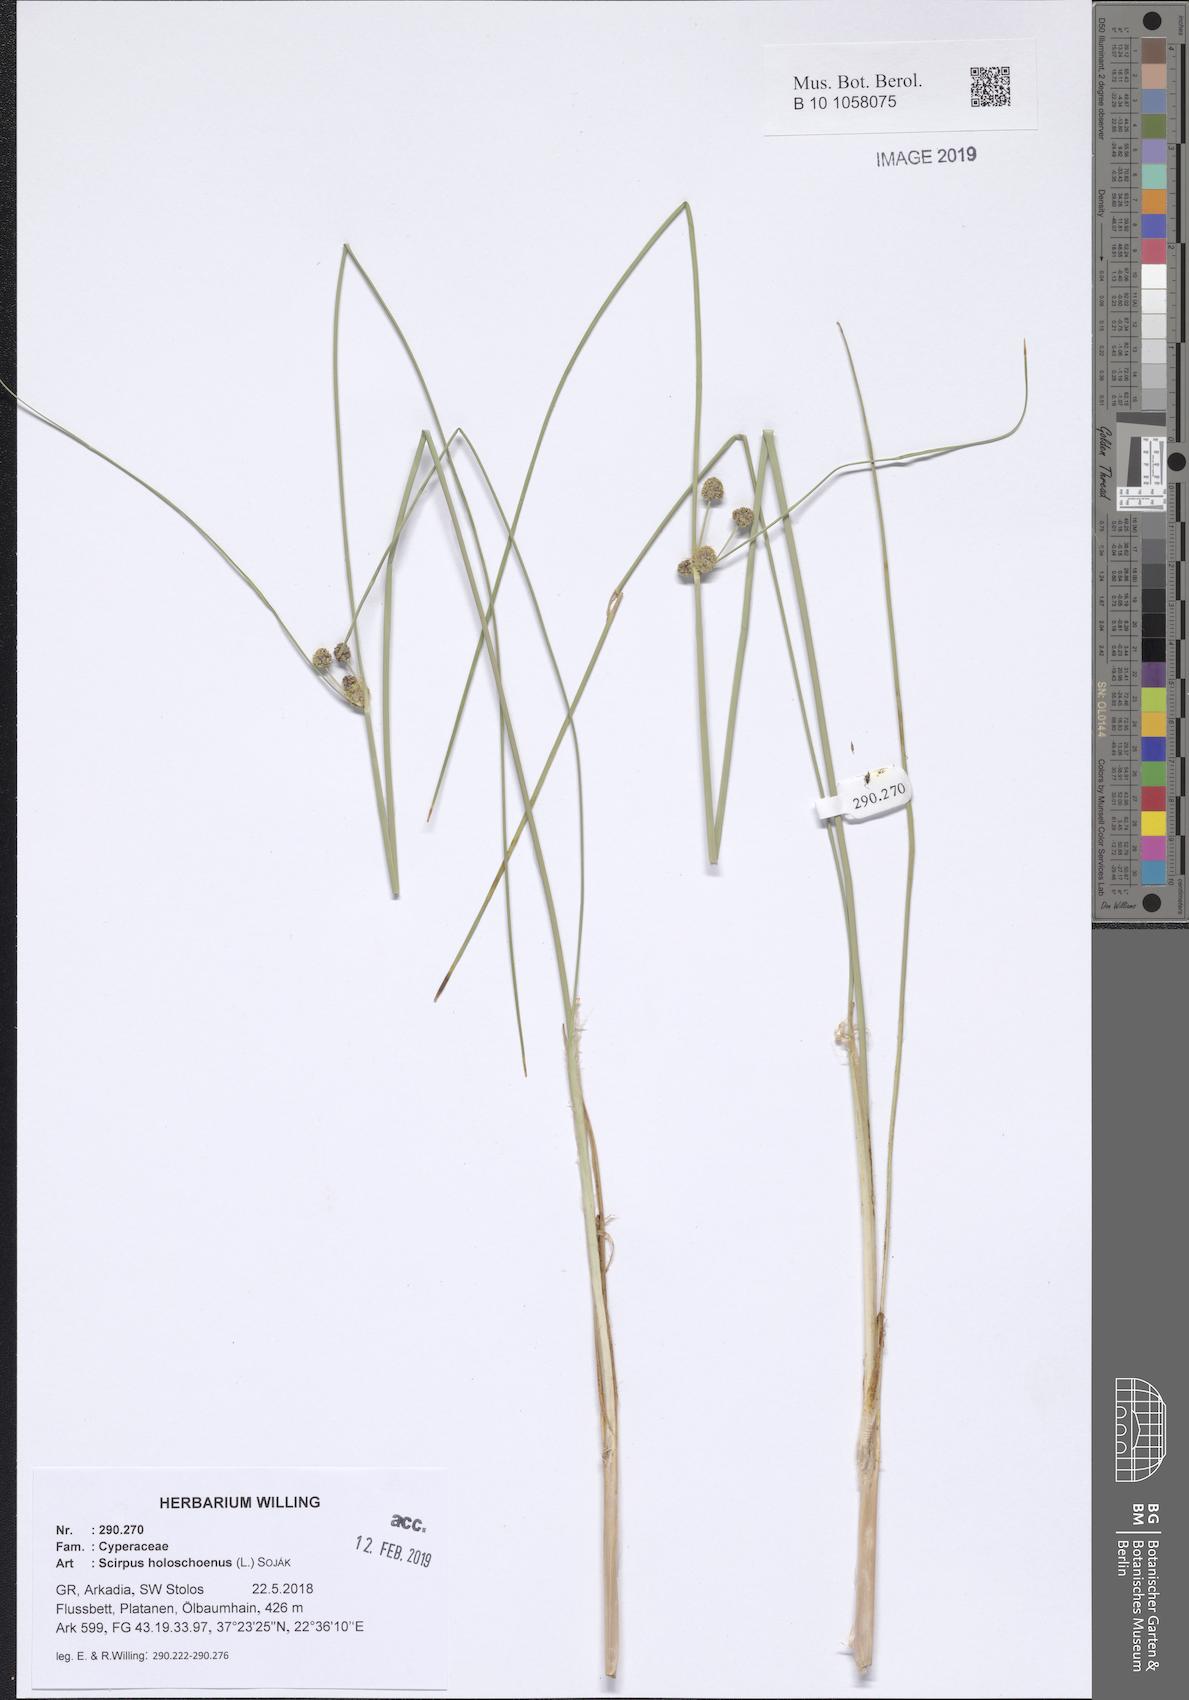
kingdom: Plantae
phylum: Tracheophyta
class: Liliopsida
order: Poales
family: Cyperaceae
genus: Scirpoides
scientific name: Scirpoides holoschoenus
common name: Round-headed club-rush
